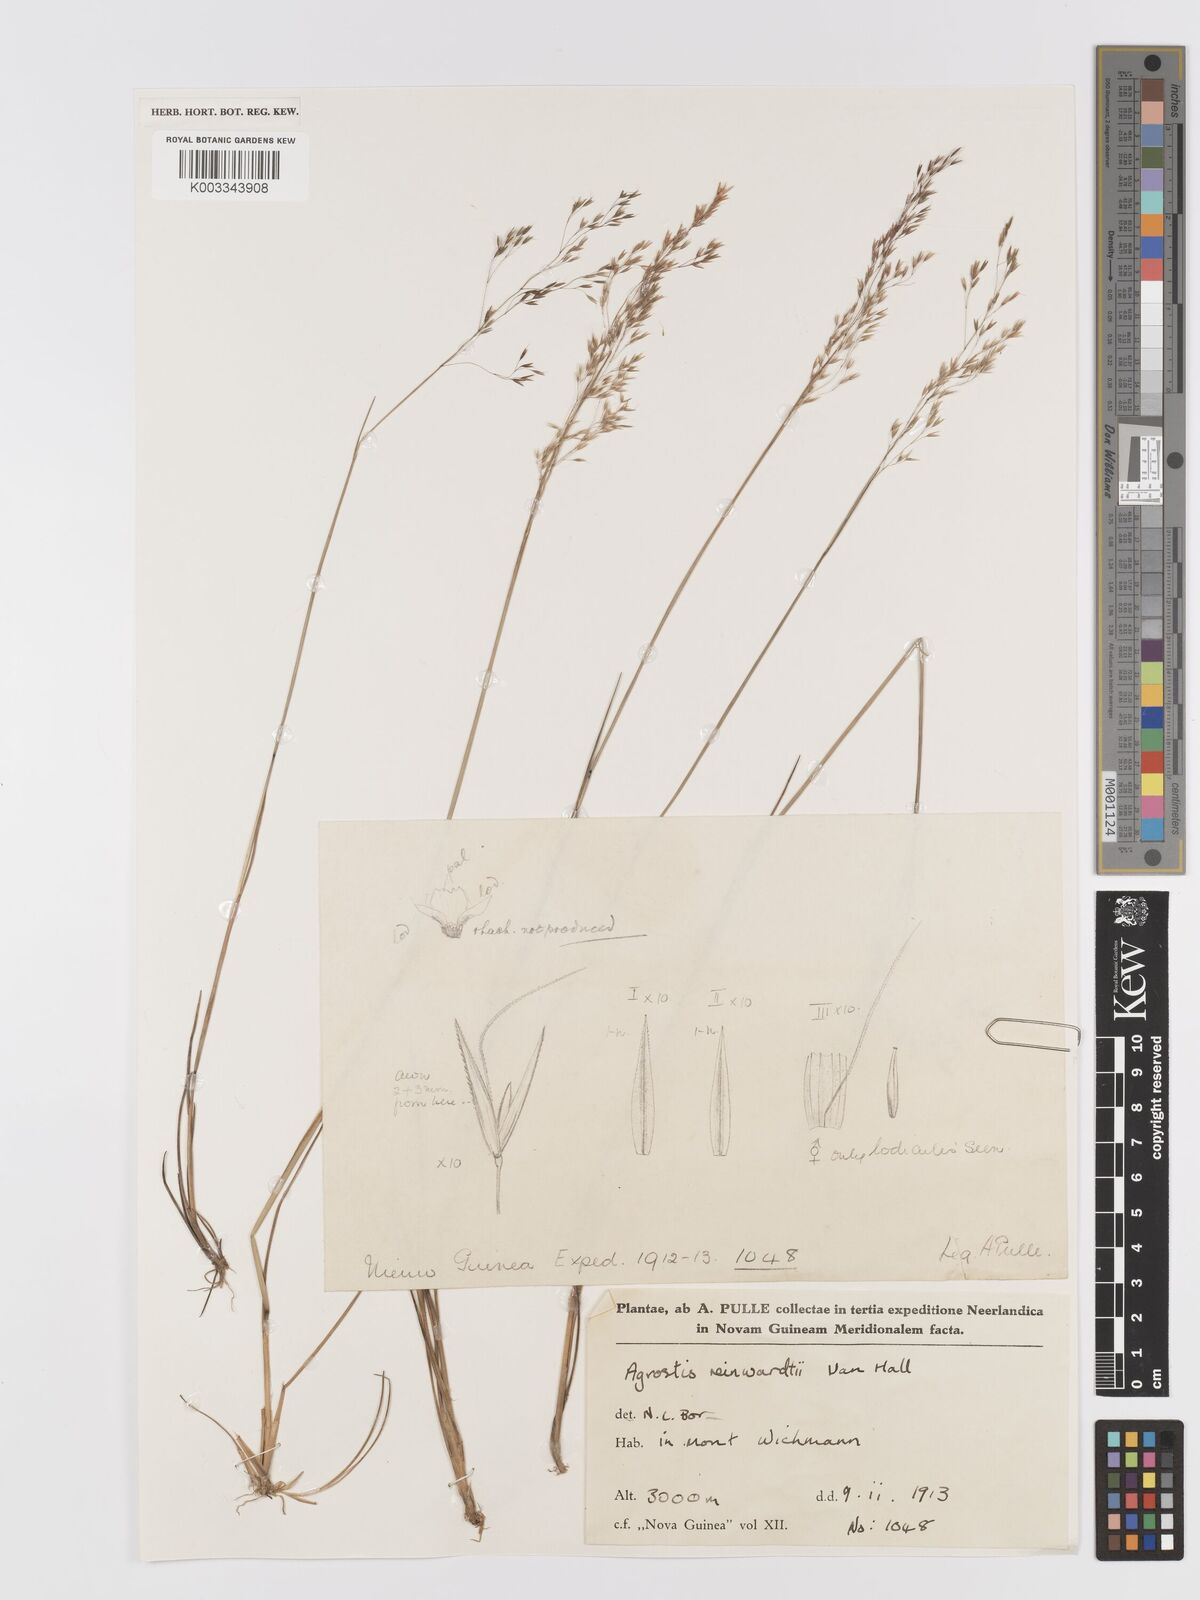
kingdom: Plantae
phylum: Tracheophyta
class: Liliopsida
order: Poales
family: Poaceae
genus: Agrostis
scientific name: Agrostis infirma
